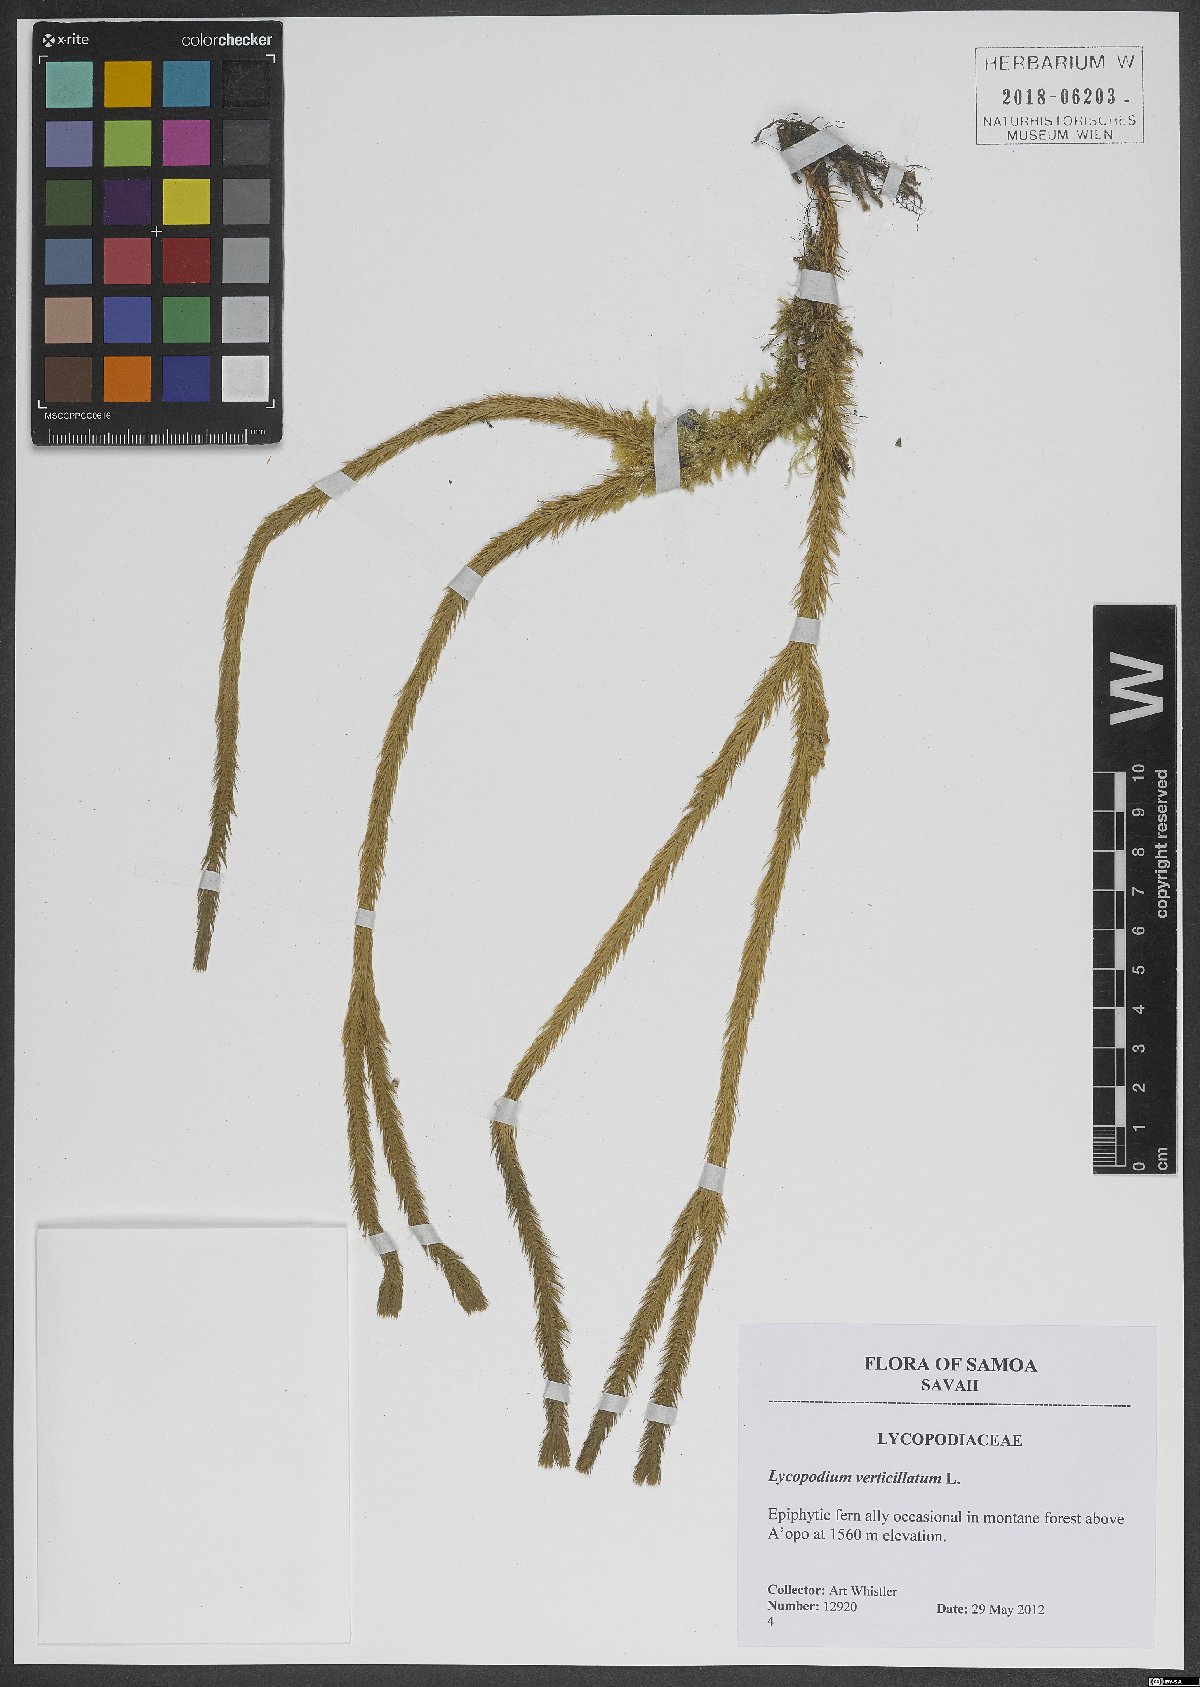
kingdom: Plantae
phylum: Tracheophyta
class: Lycopodiopsida
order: Lycopodiales
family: Lycopodiaceae
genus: Phlegmariurus
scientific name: Phlegmariurus filiformis
